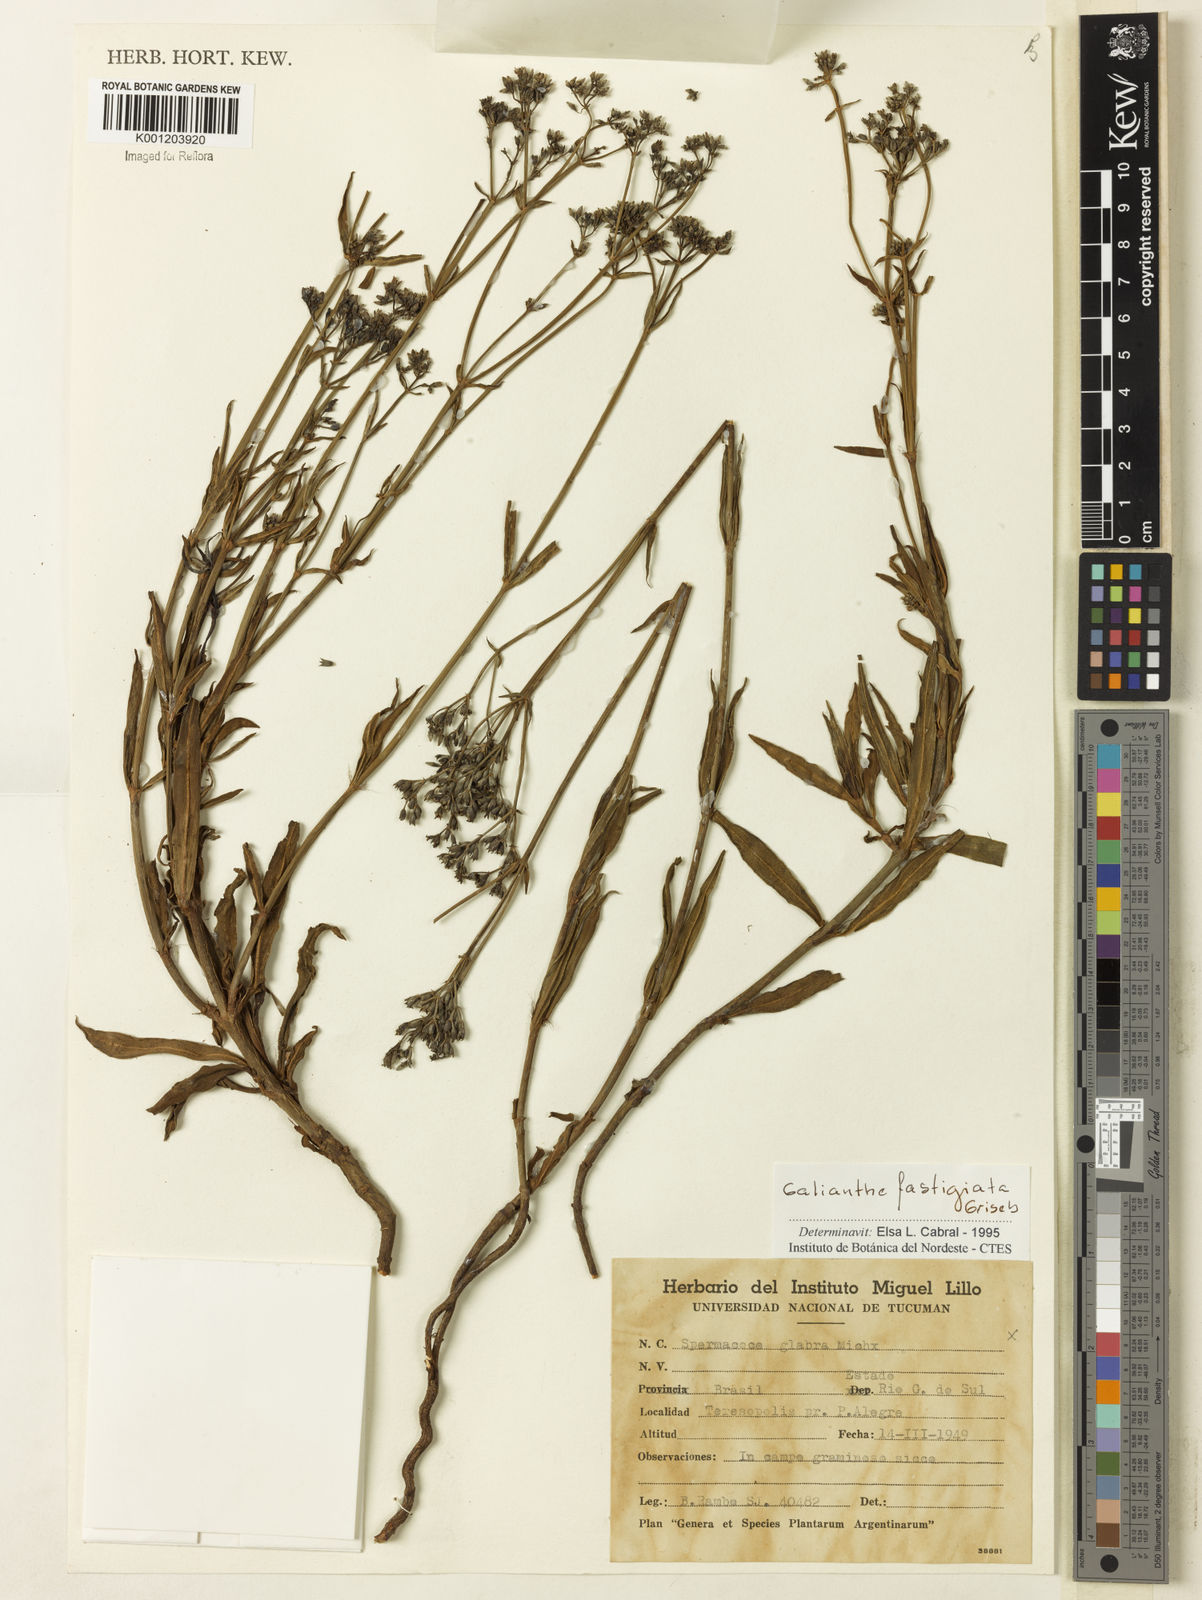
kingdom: Plantae
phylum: Tracheophyta
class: Magnoliopsida
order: Gentianales
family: Rubiaceae
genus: Galianthe
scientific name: Galianthe fastigiata
